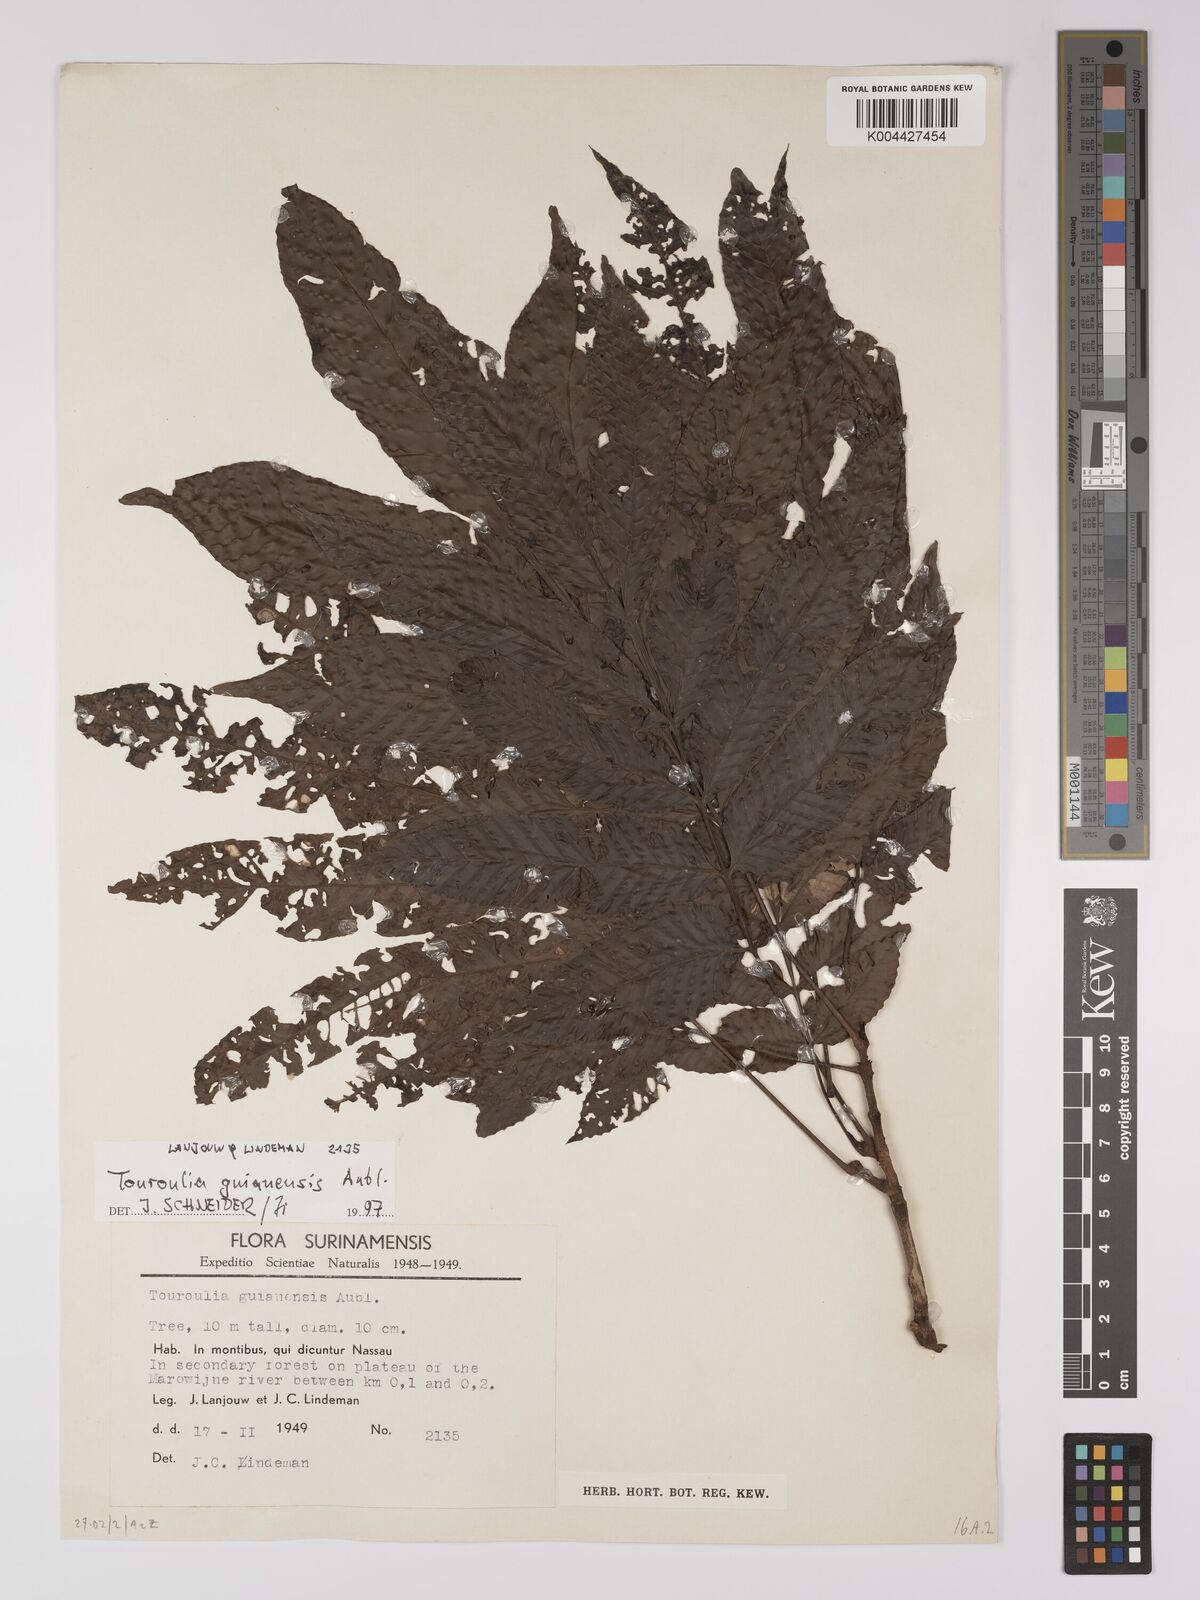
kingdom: Plantae
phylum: Tracheophyta
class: Magnoliopsida
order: Malpighiales
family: Quiinaceae
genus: Touroulia
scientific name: Touroulia guianensis
